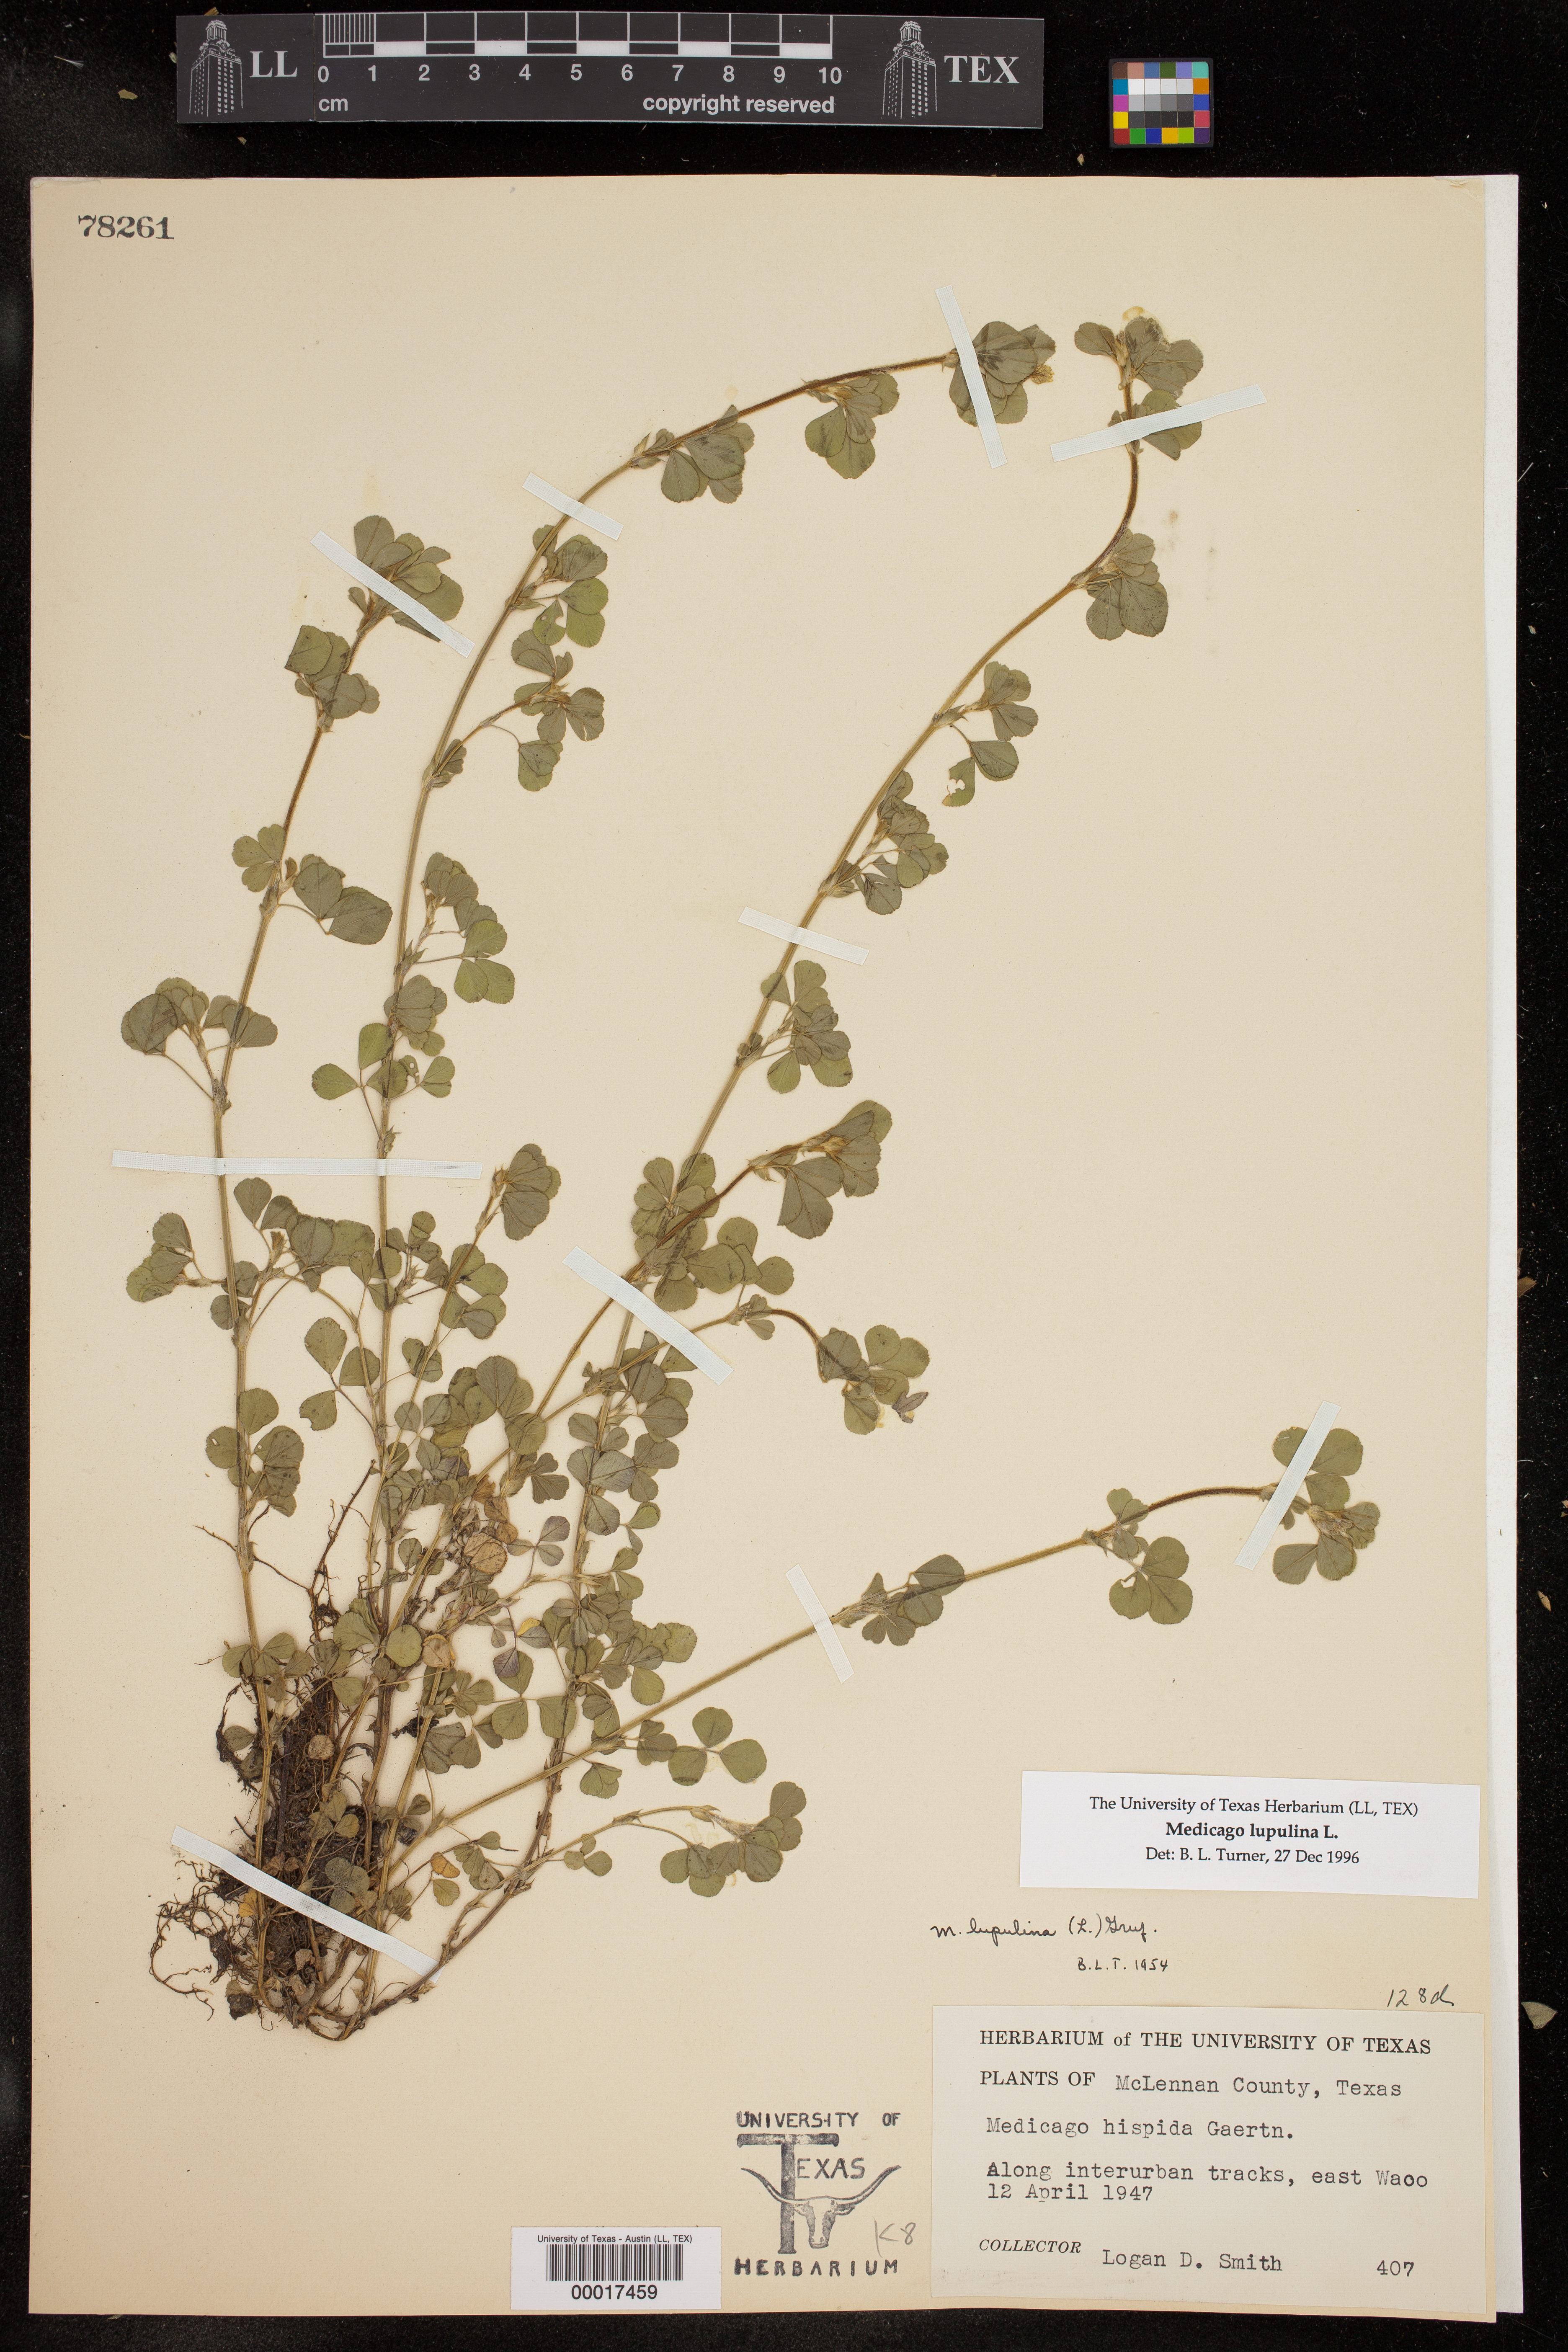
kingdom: Plantae
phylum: Tracheophyta
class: Magnoliopsida
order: Fabales
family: Fabaceae
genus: Medicago
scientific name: Medicago lupulina
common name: Black medick
